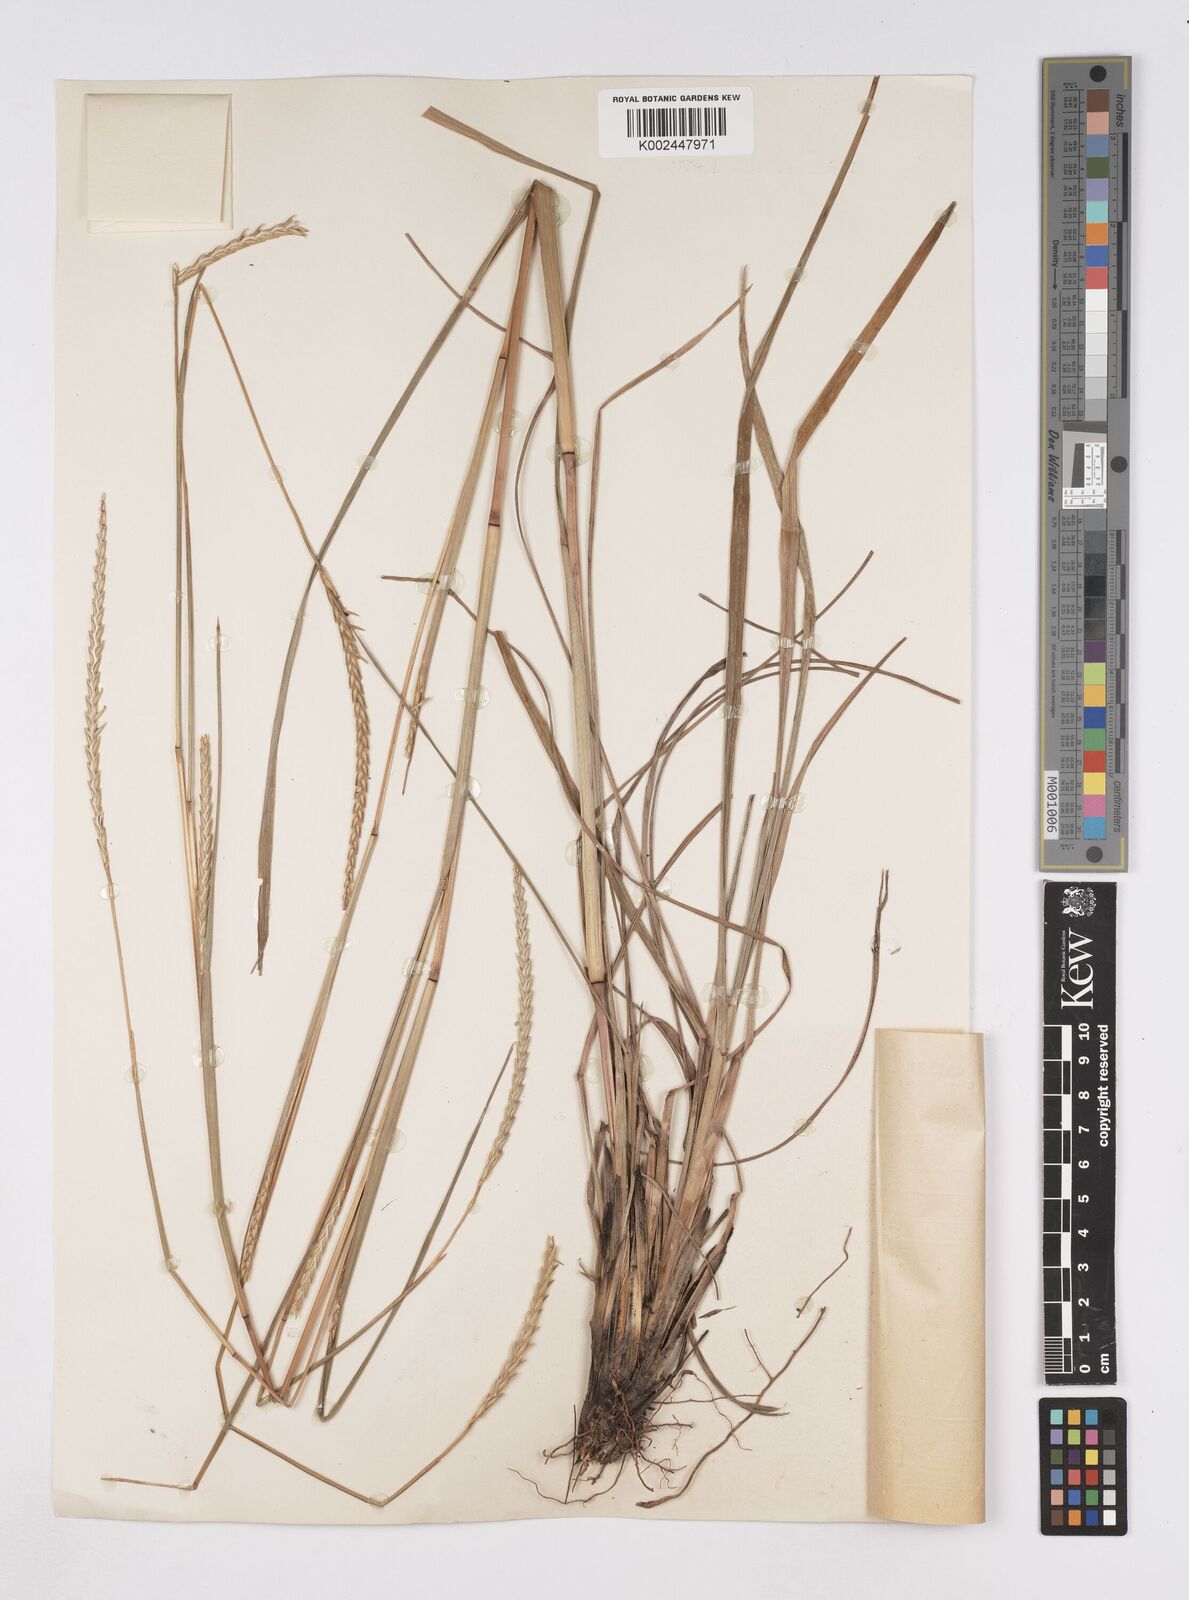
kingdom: Plantae
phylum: Tracheophyta
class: Liliopsida
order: Poales
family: Poaceae
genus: Elionurus
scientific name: Elionurus platypus
